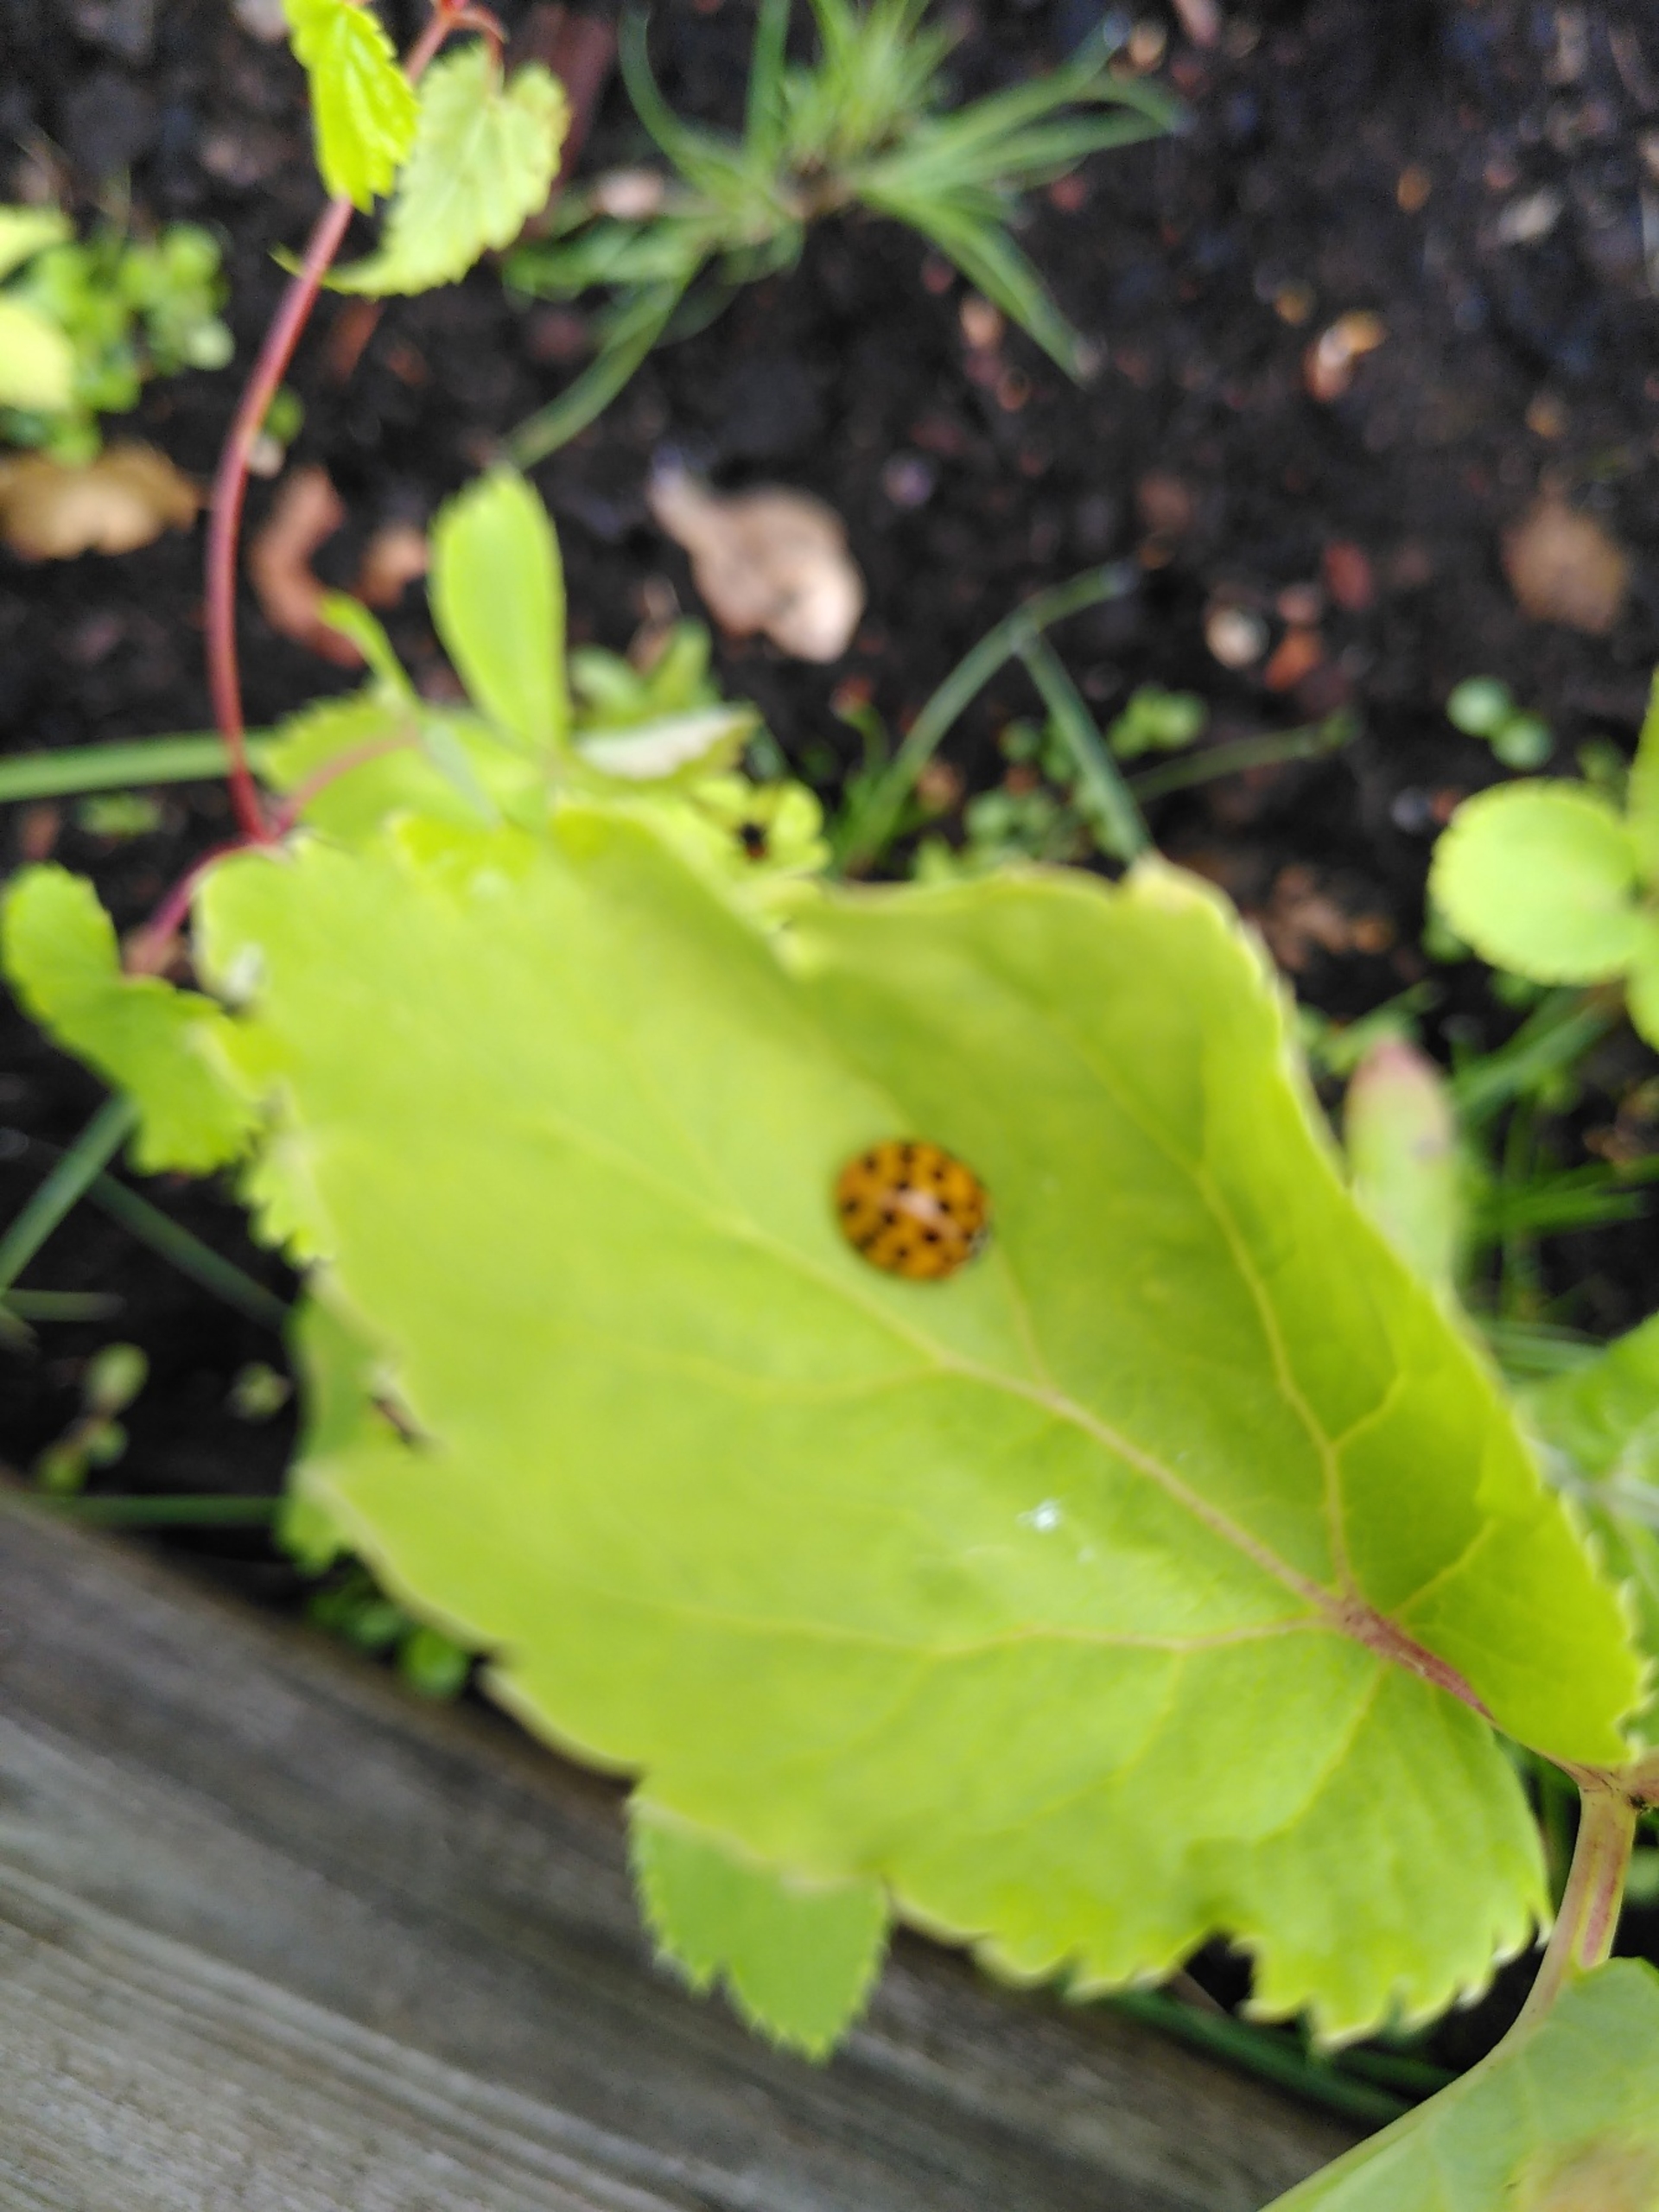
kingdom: Animalia
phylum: Arthropoda
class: Insecta
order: Coleoptera
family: Coccinellidae
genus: Harmonia
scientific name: Harmonia axyridis
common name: Harlekinmariehøne
